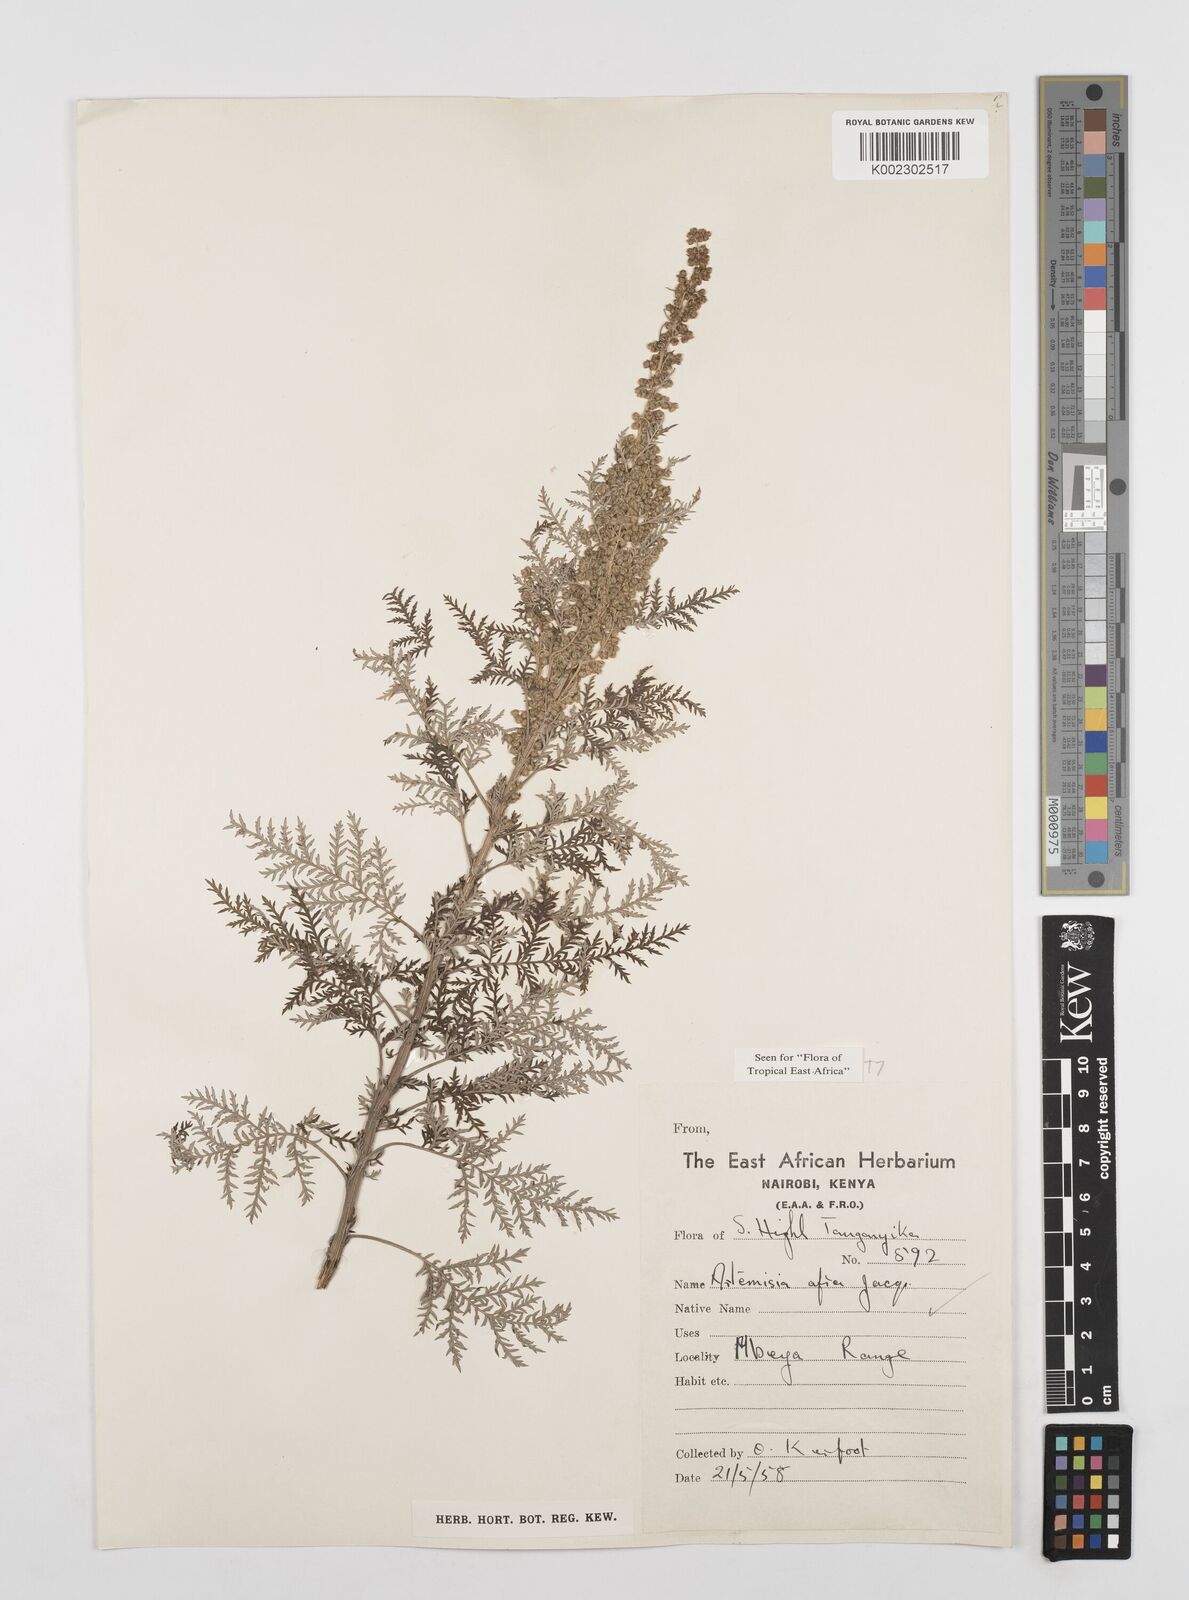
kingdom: Plantae
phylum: Tracheophyta
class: Magnoliopsida
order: Asterales
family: Asteraceae
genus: Artemisia
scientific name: Artemisia afra
